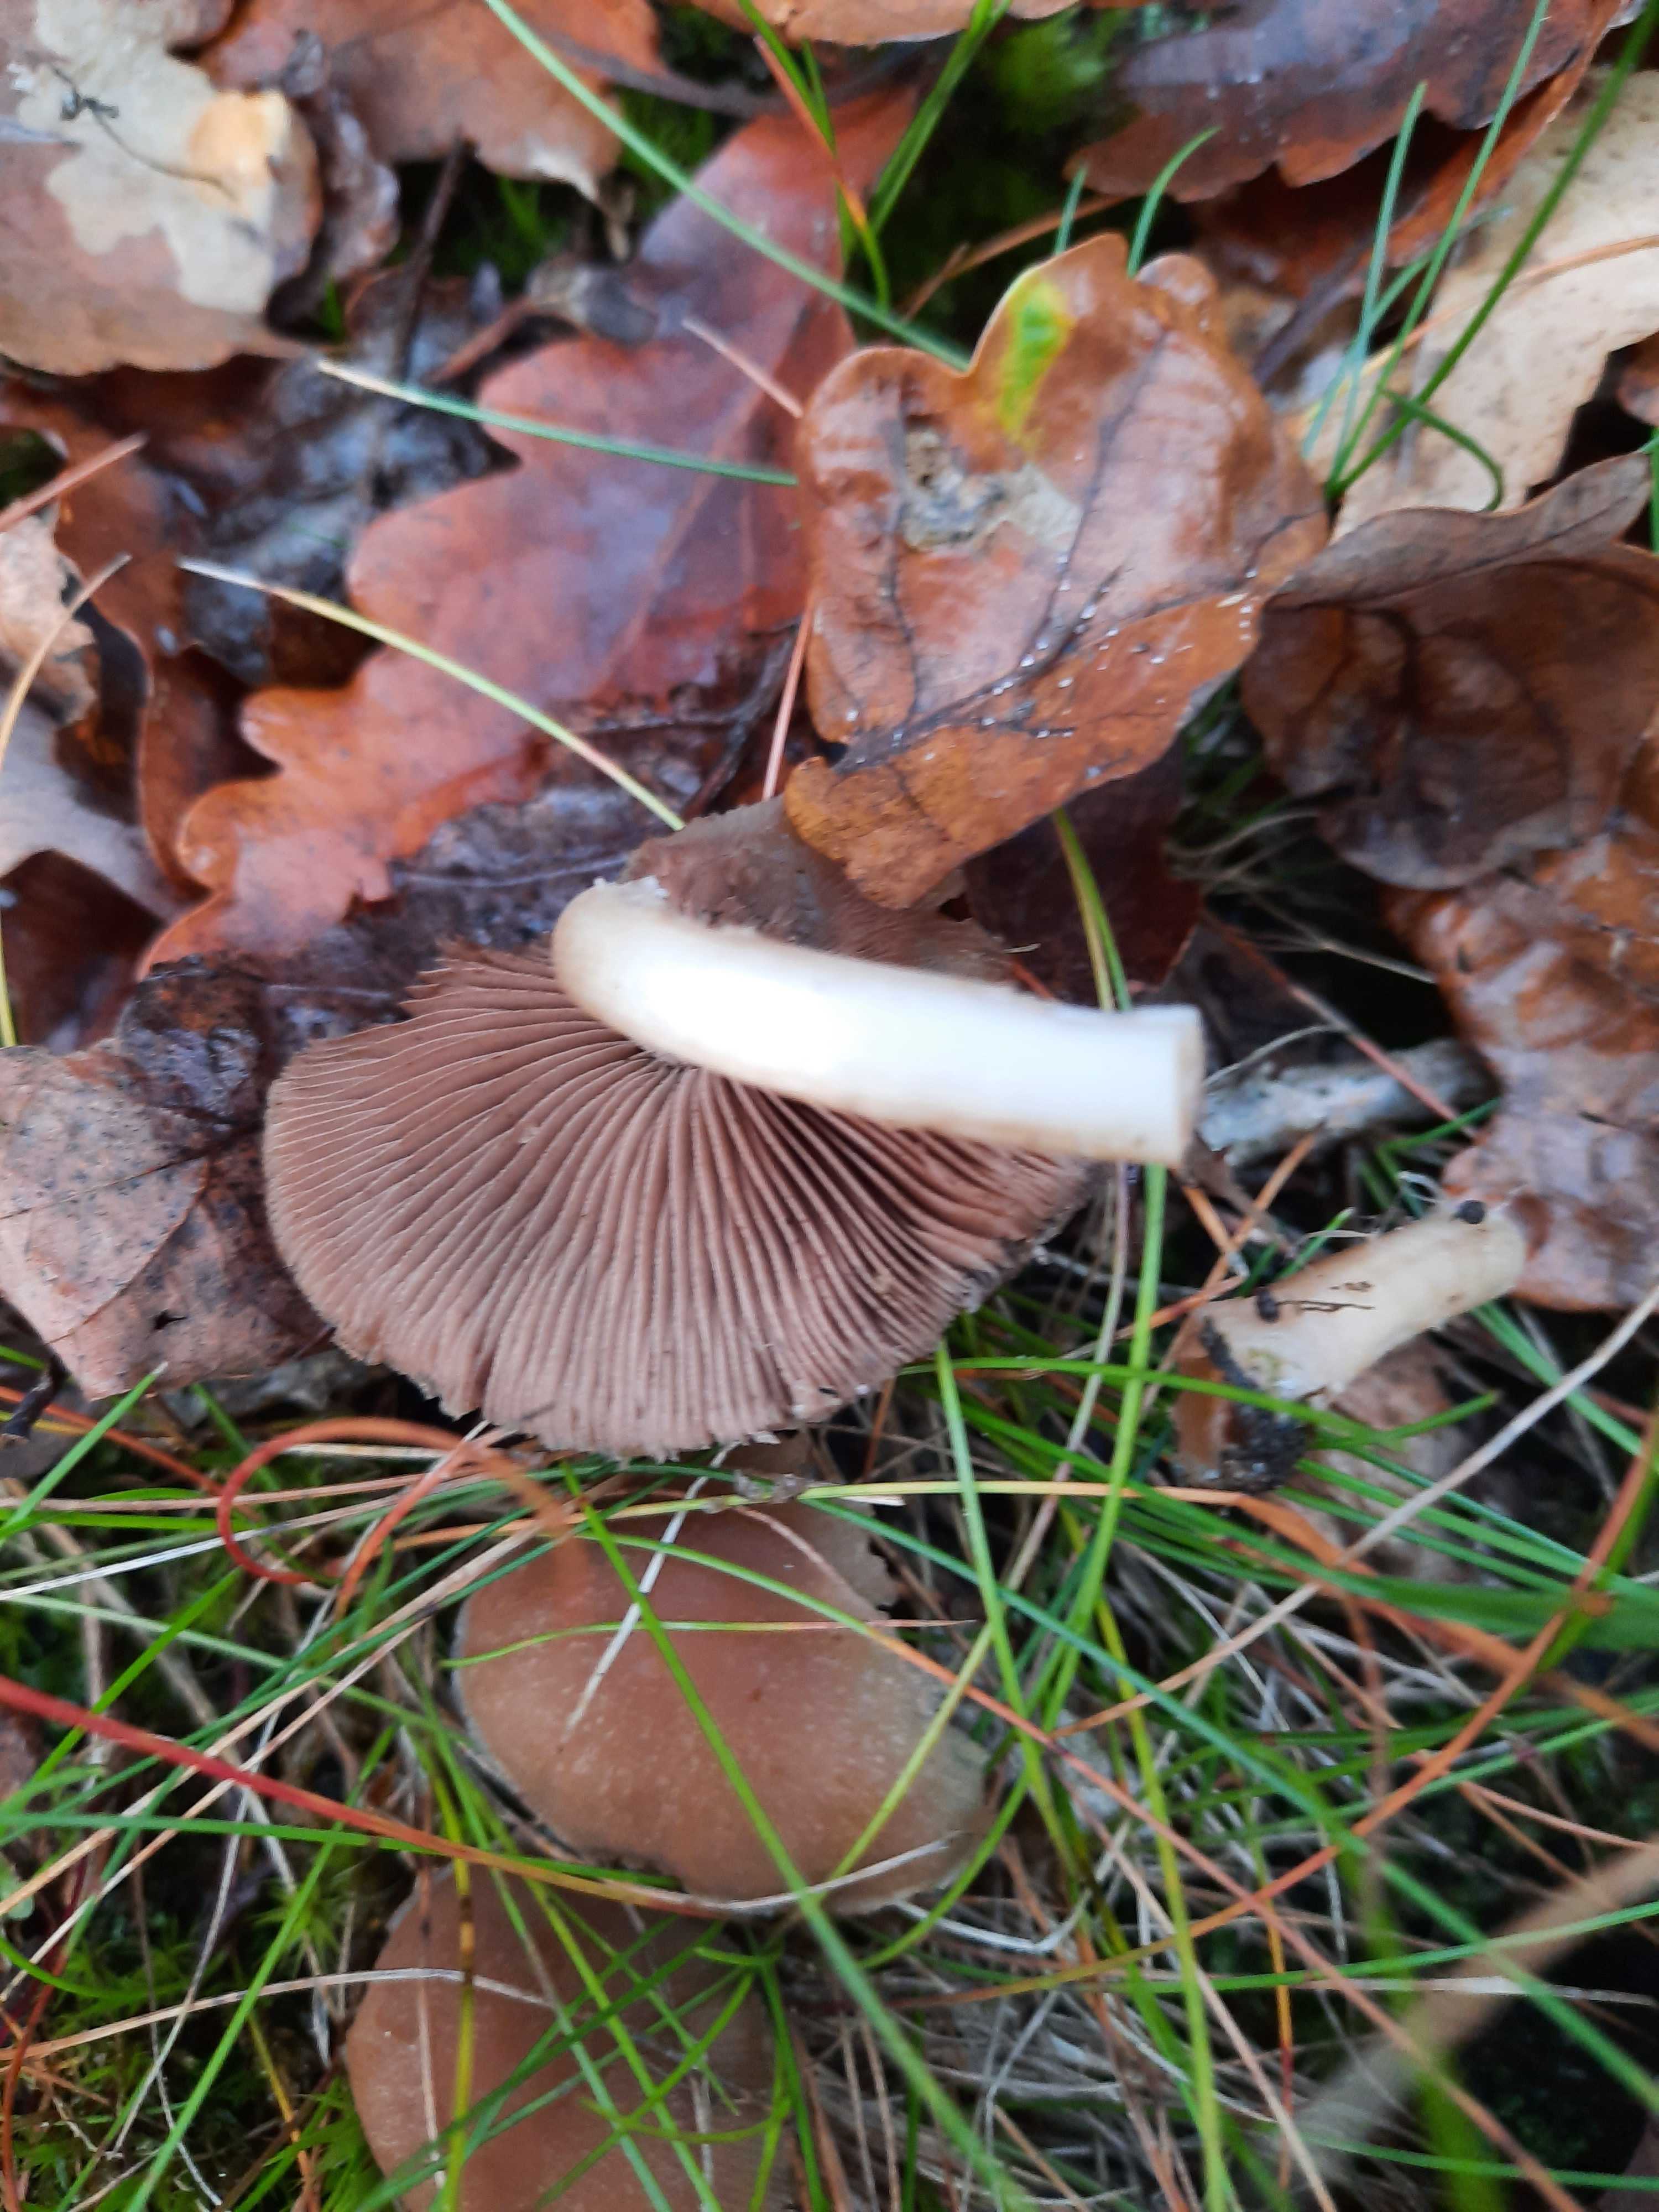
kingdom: Fungi
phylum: Basidiomycota
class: Agaricomycetes
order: Agaricales
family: Psathyrellaceae
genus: Psathyrella
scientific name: Psathyrella
